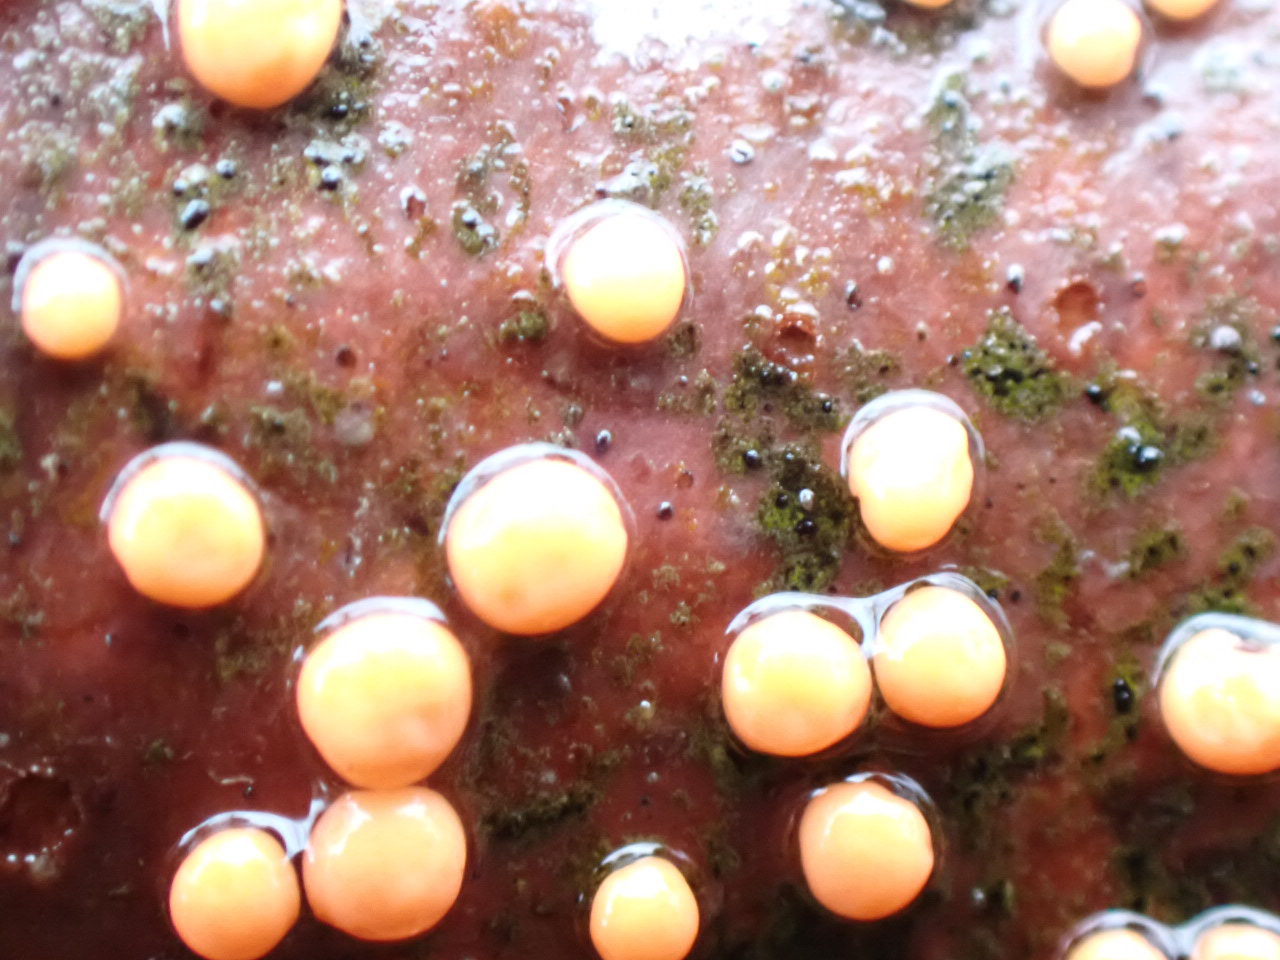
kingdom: Fungi
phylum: Ascomycota
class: Sordariomycetes
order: Hypocreales
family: Nectriaceae
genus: Nectria
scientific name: Nectria cinnabarina
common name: almindelig cinnobersvamp
